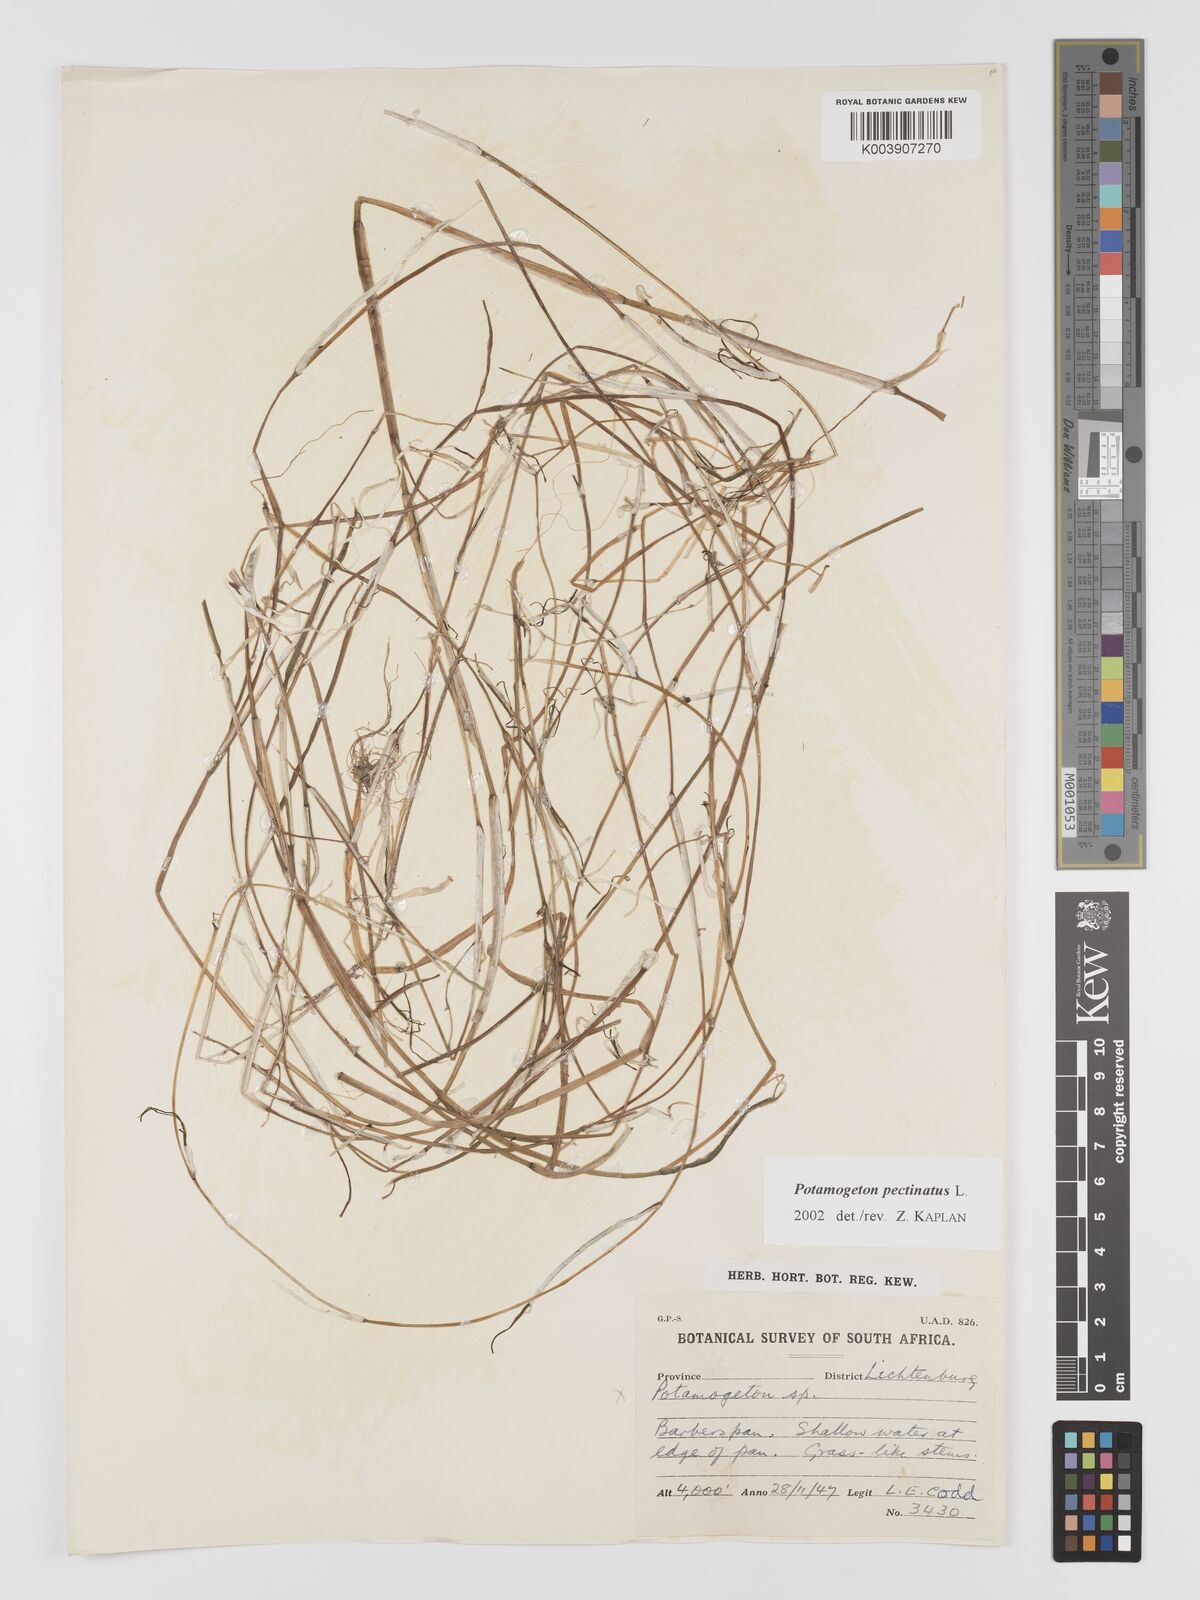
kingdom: Plantae
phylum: Tracheophyta
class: Liliopsida
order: Alismatales
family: Potamogetonaceae
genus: Stuckenia
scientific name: Stuckenia pectinata
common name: Sago pondweed
